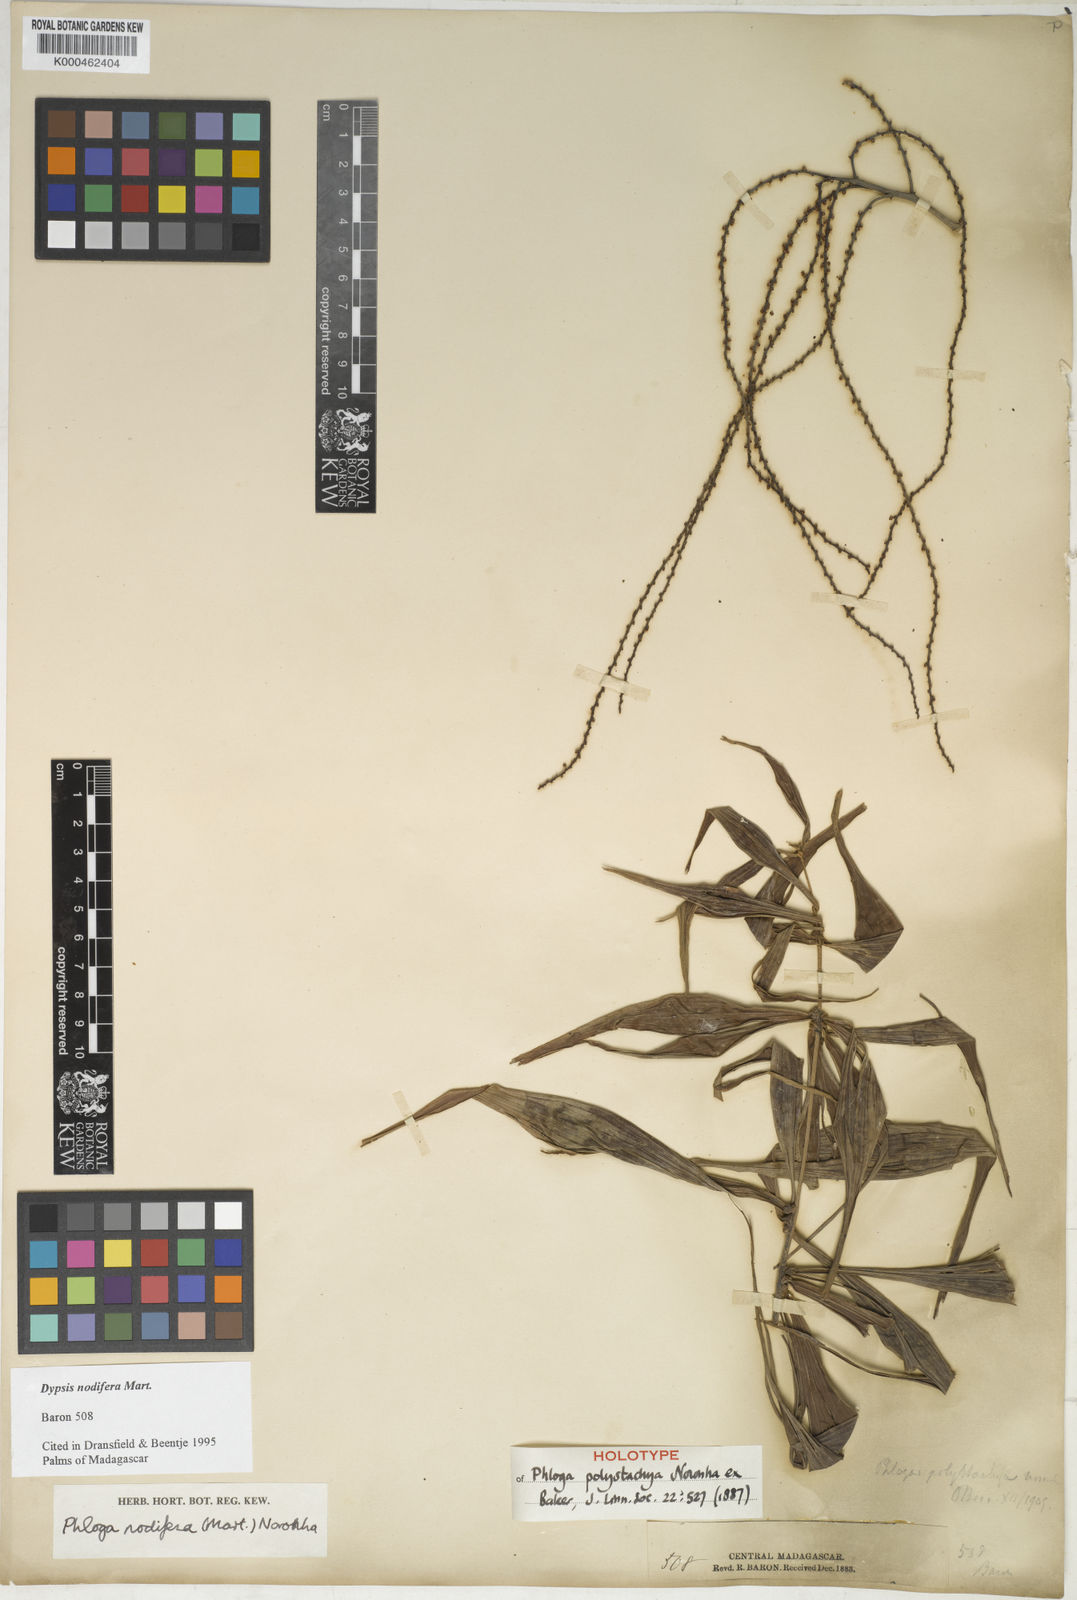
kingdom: Plantae
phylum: Tracheophyta
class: Liliopsida
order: Arecales
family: Arecaceae
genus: Dypsis
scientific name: Dypsis nodifera
